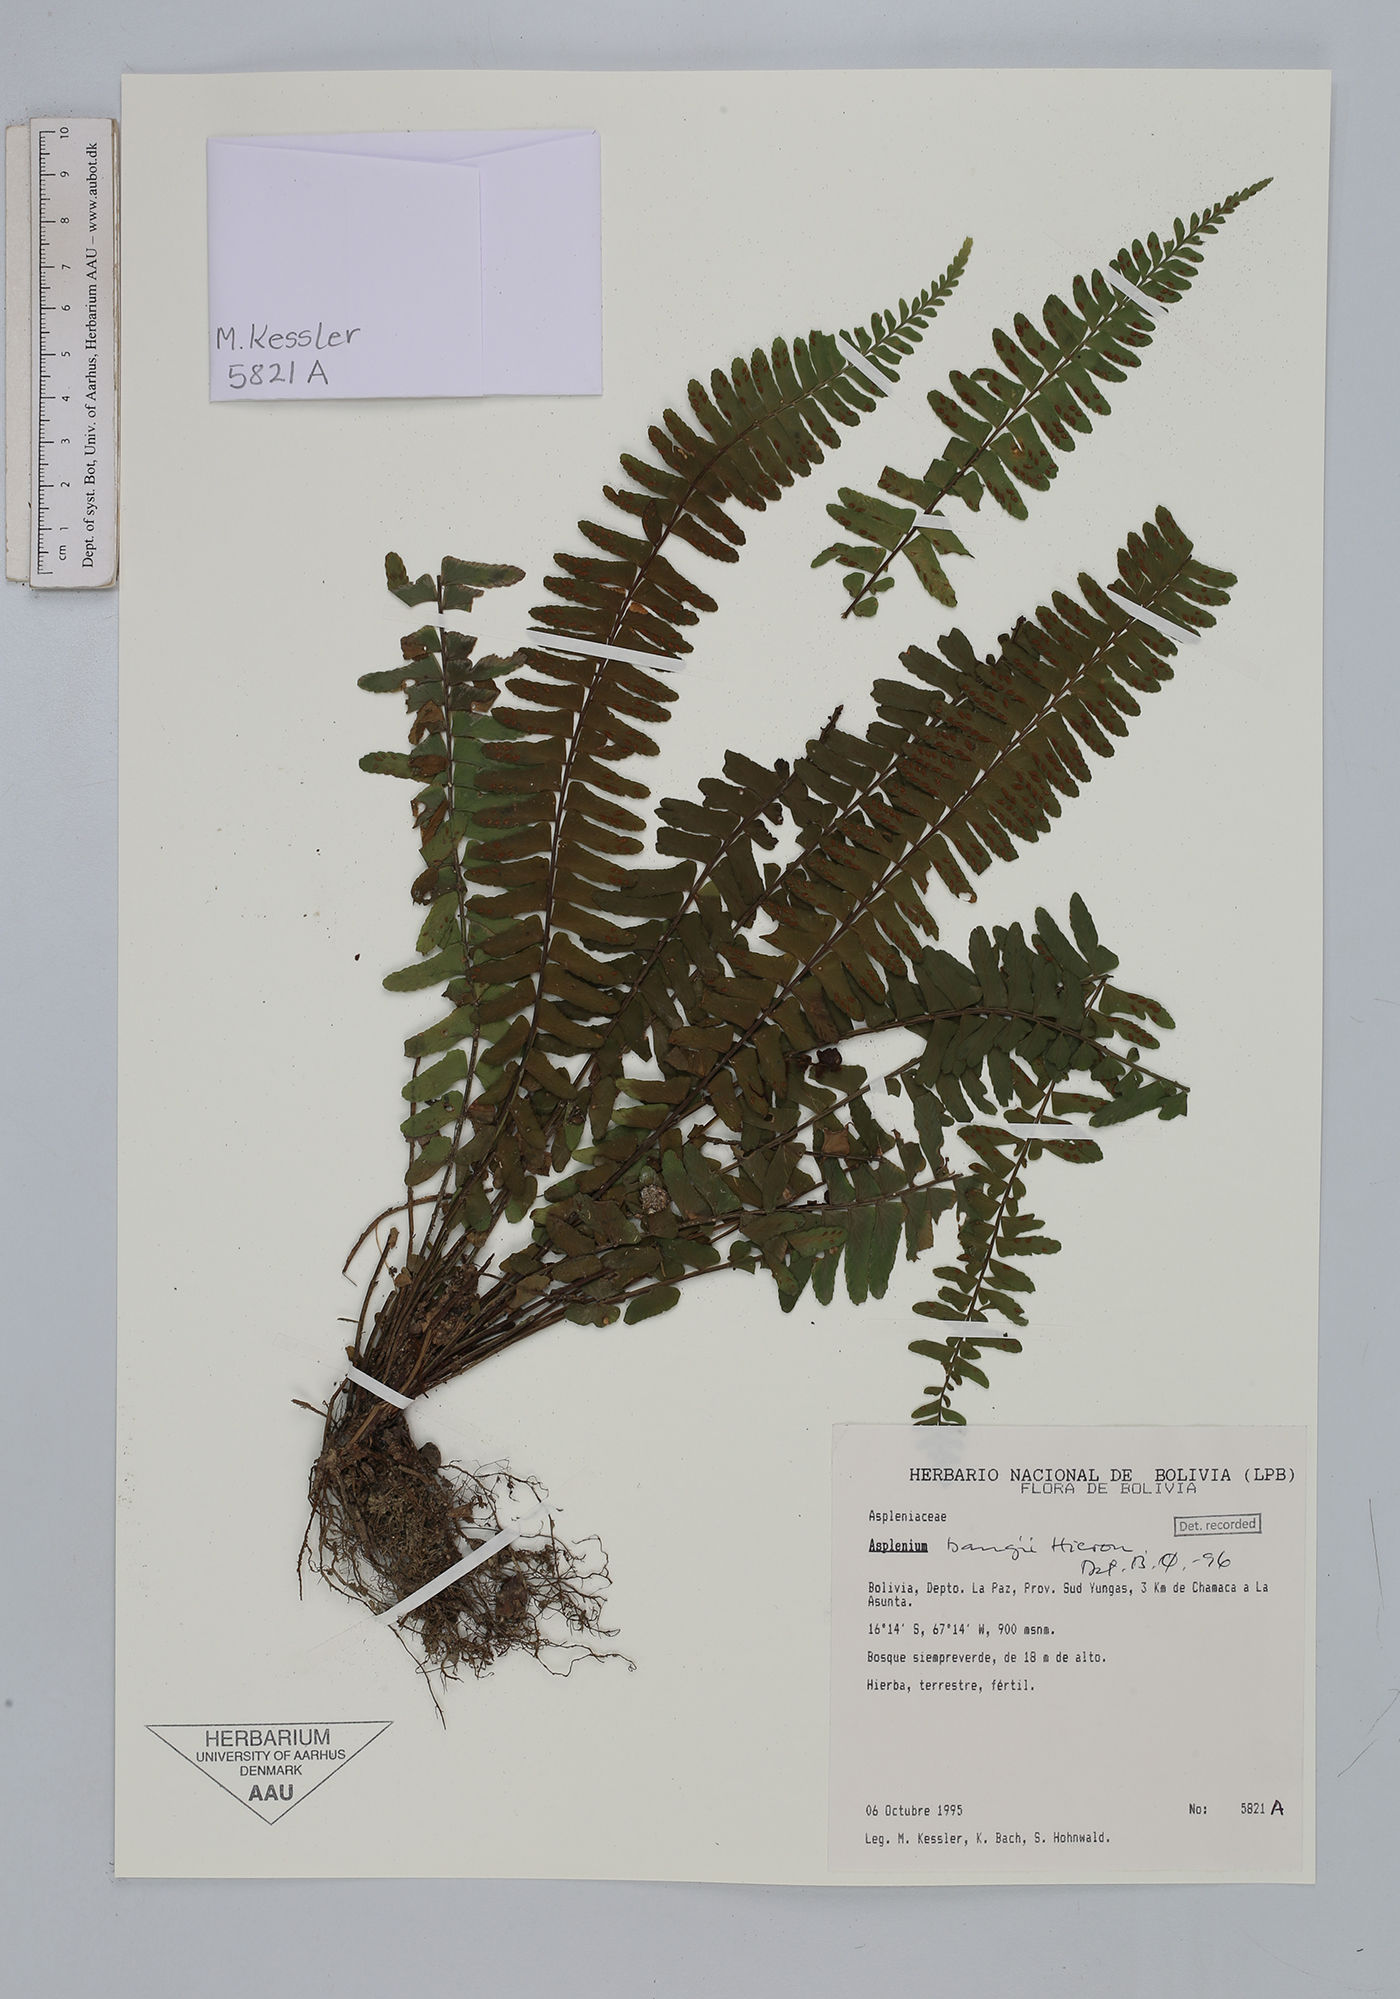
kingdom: Plantae
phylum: Tracheophyta
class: Polypodiopsida
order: Polypodiales
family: Aspleniaceae
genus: Asplenium
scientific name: Asplenium bangii
